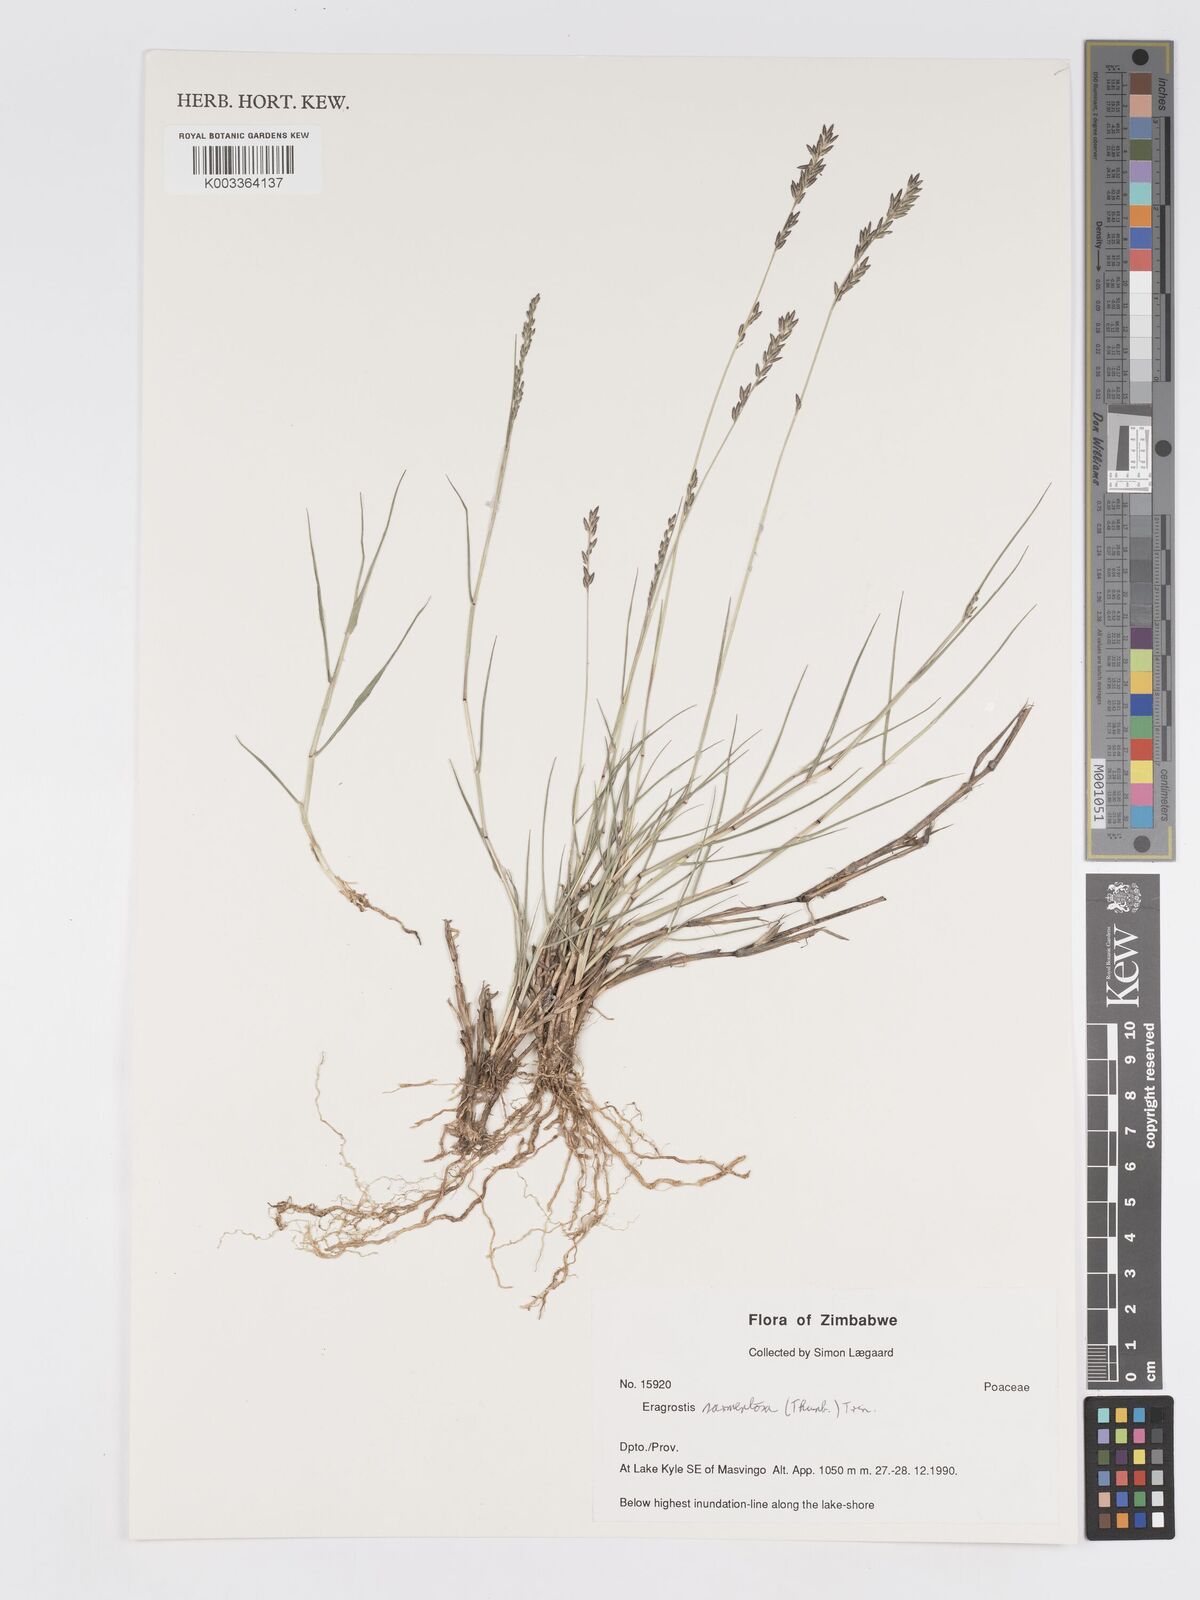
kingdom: Plantae
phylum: Tracheophyta
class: Liliopsida
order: Poales
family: Poaceae
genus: Eragrostis
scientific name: Eragrostis sarmentosa
